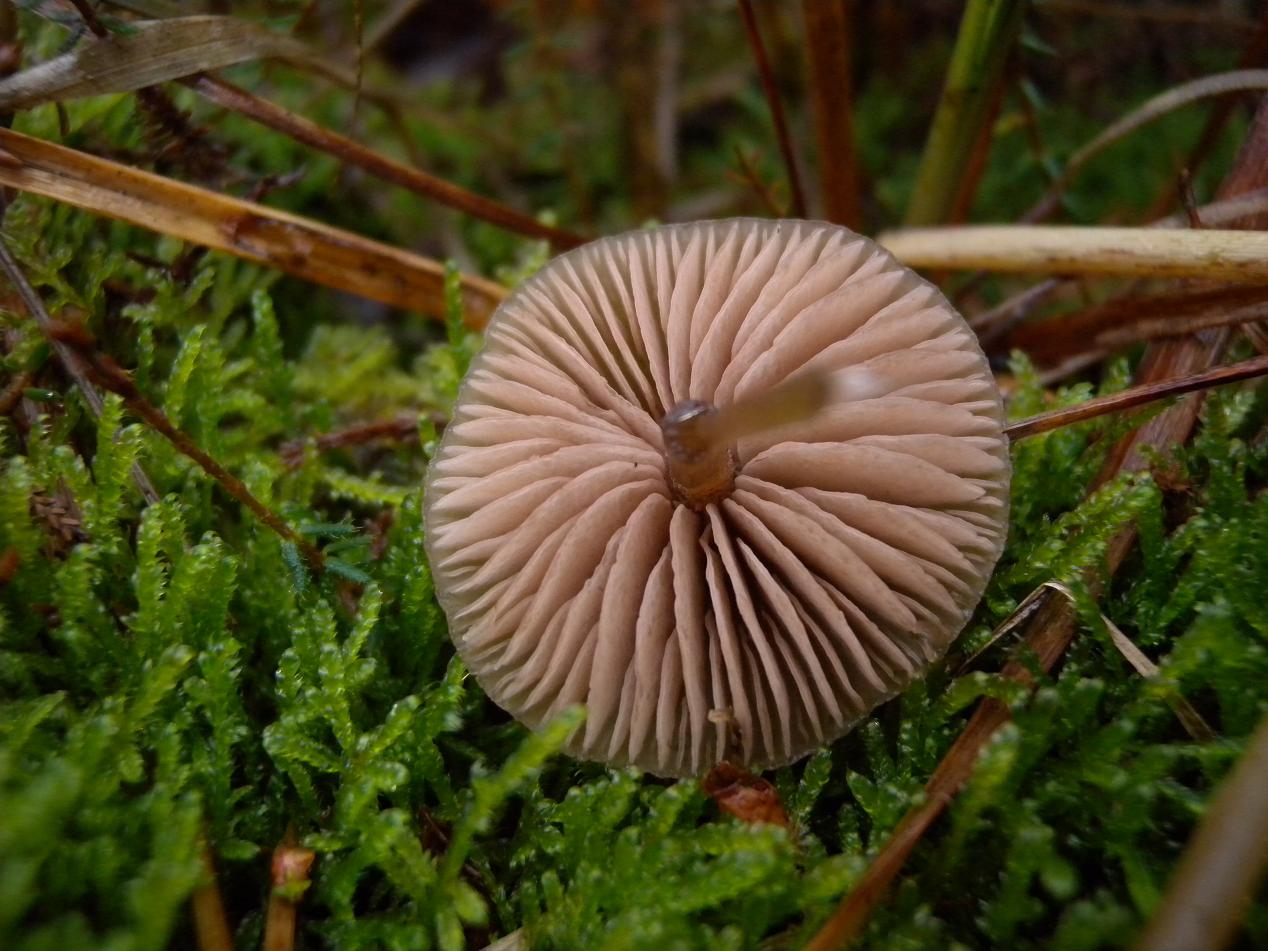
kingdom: Fungi
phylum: Basidiomycota
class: Agaricomycetes
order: Agaricales
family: Entolomataceae
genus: Entoloma
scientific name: Entoloma cetratum
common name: voks-rødblad
